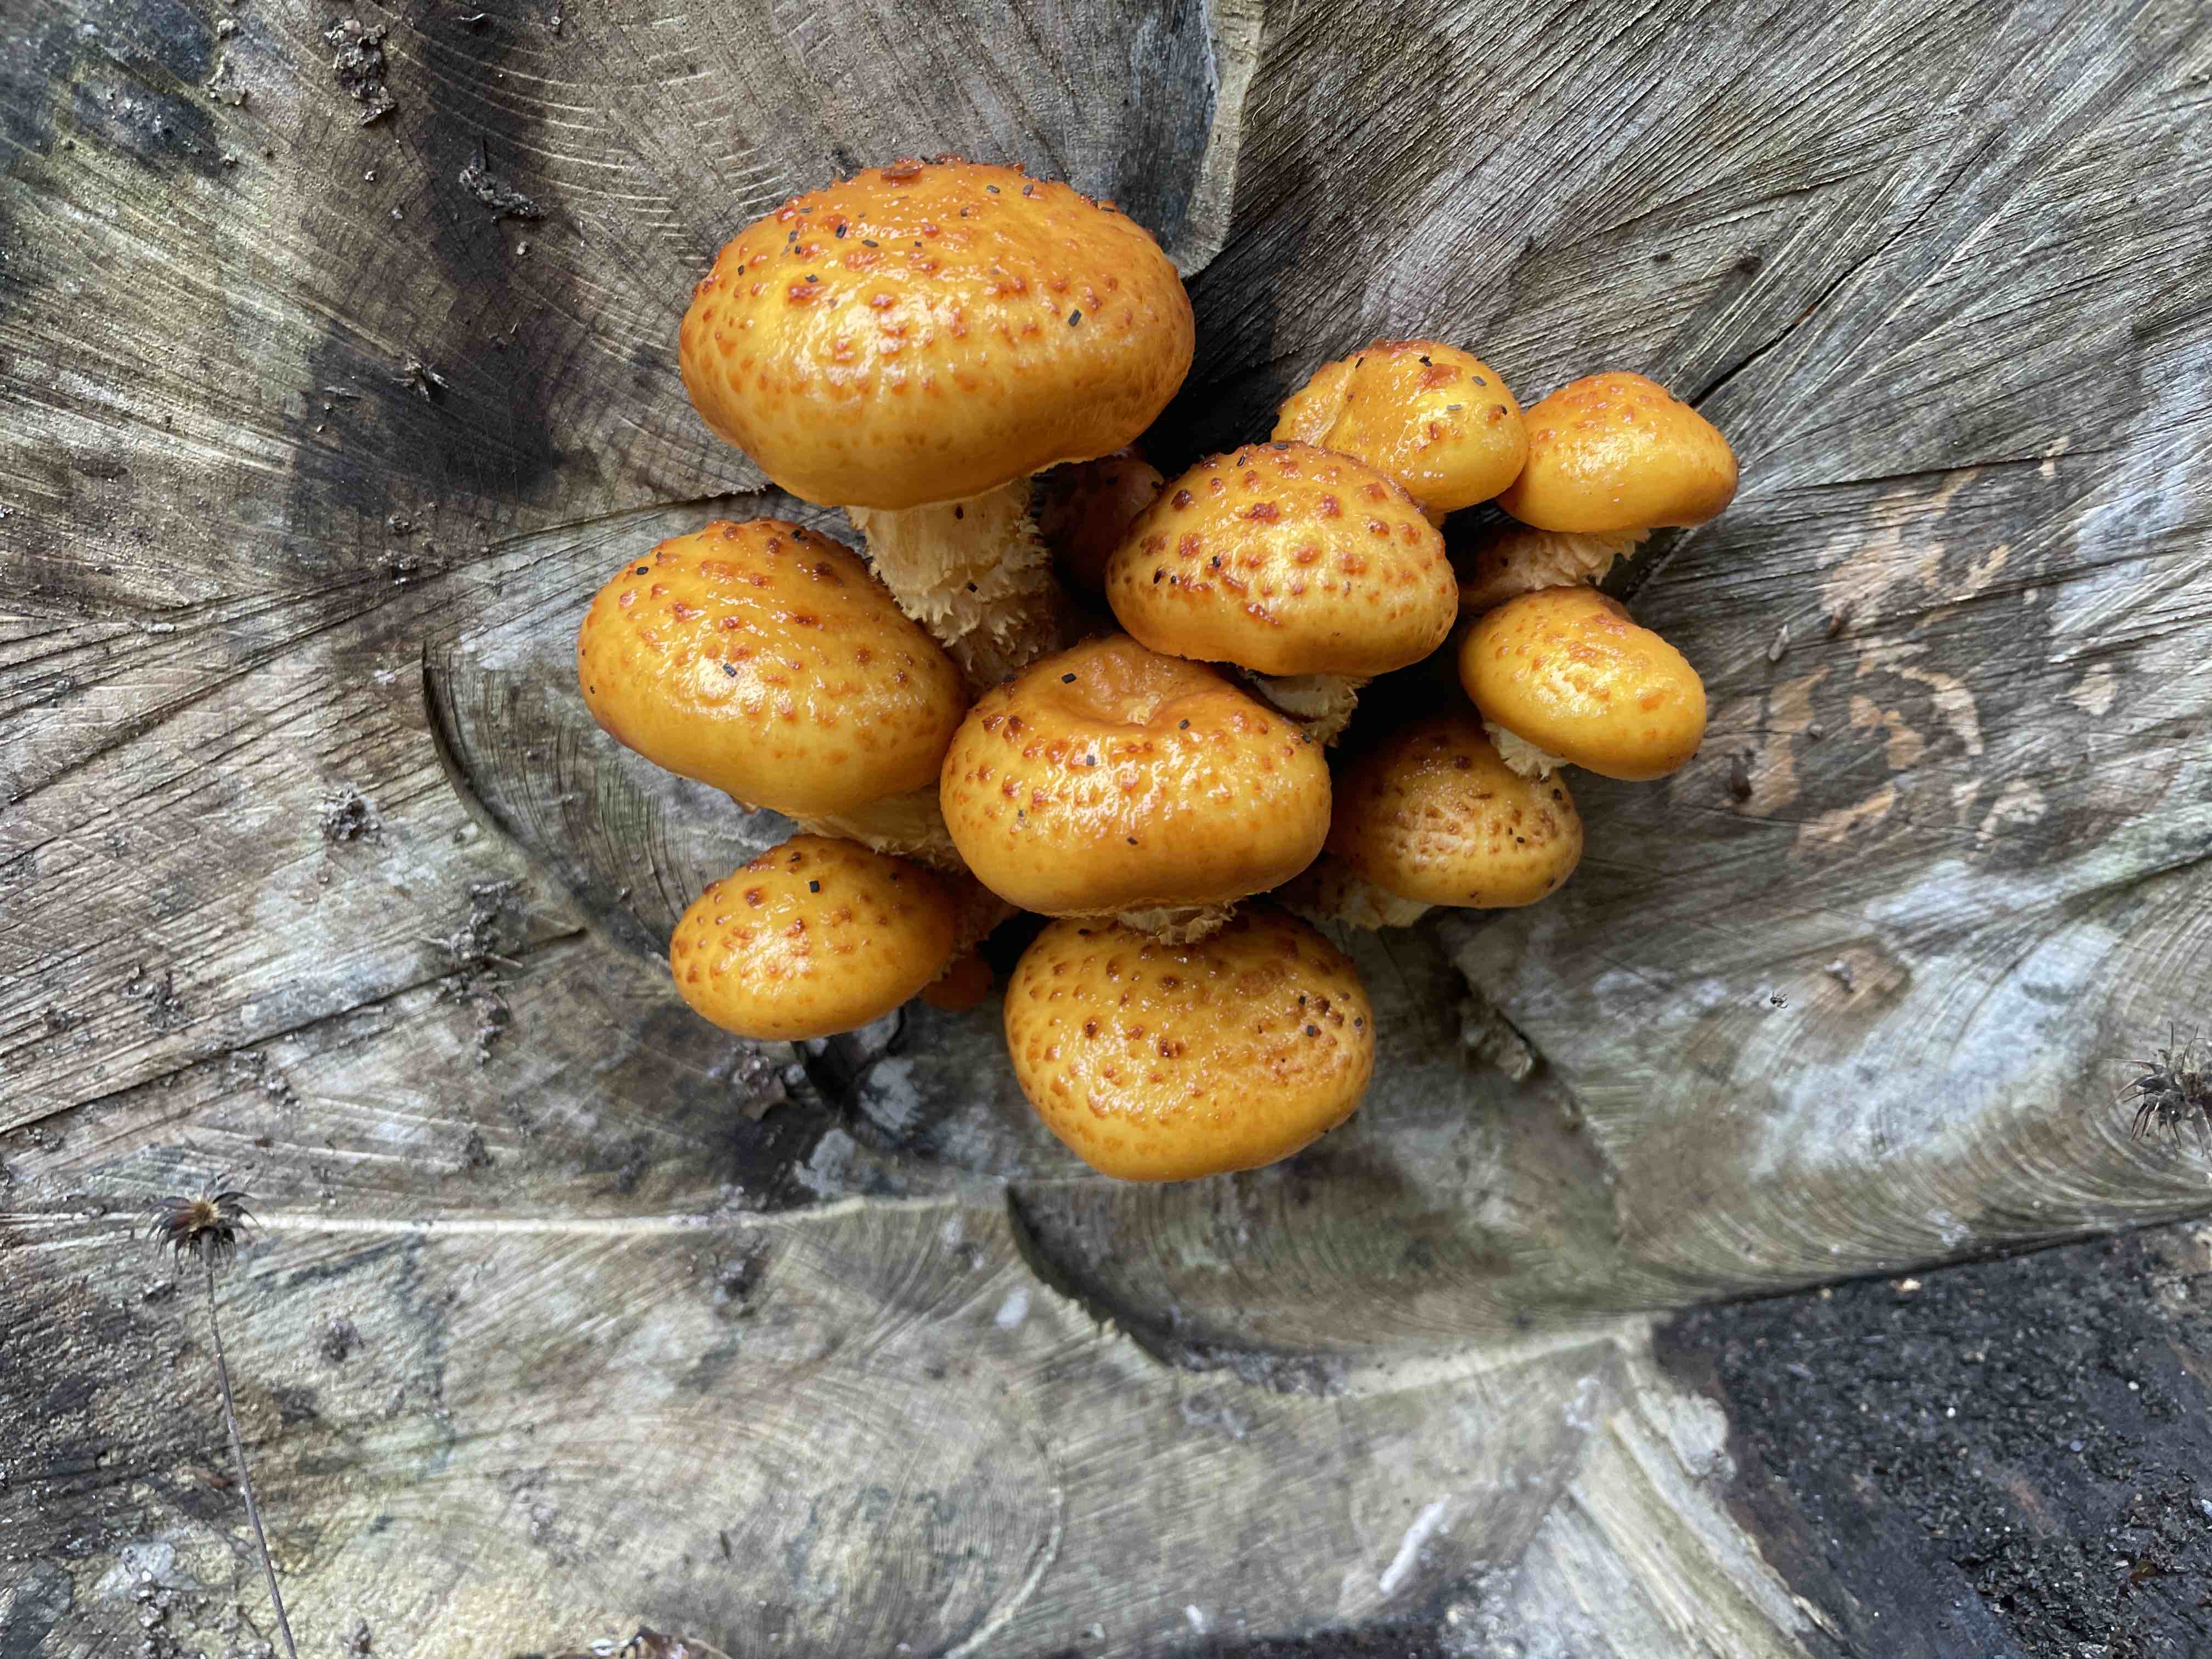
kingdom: Fungi
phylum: Basidiomycota
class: Agaricomycetes
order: Agaricales
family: Strophariaceae
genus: Pholiota
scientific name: Pholiota adiposa
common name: højtsiddende skælhat
